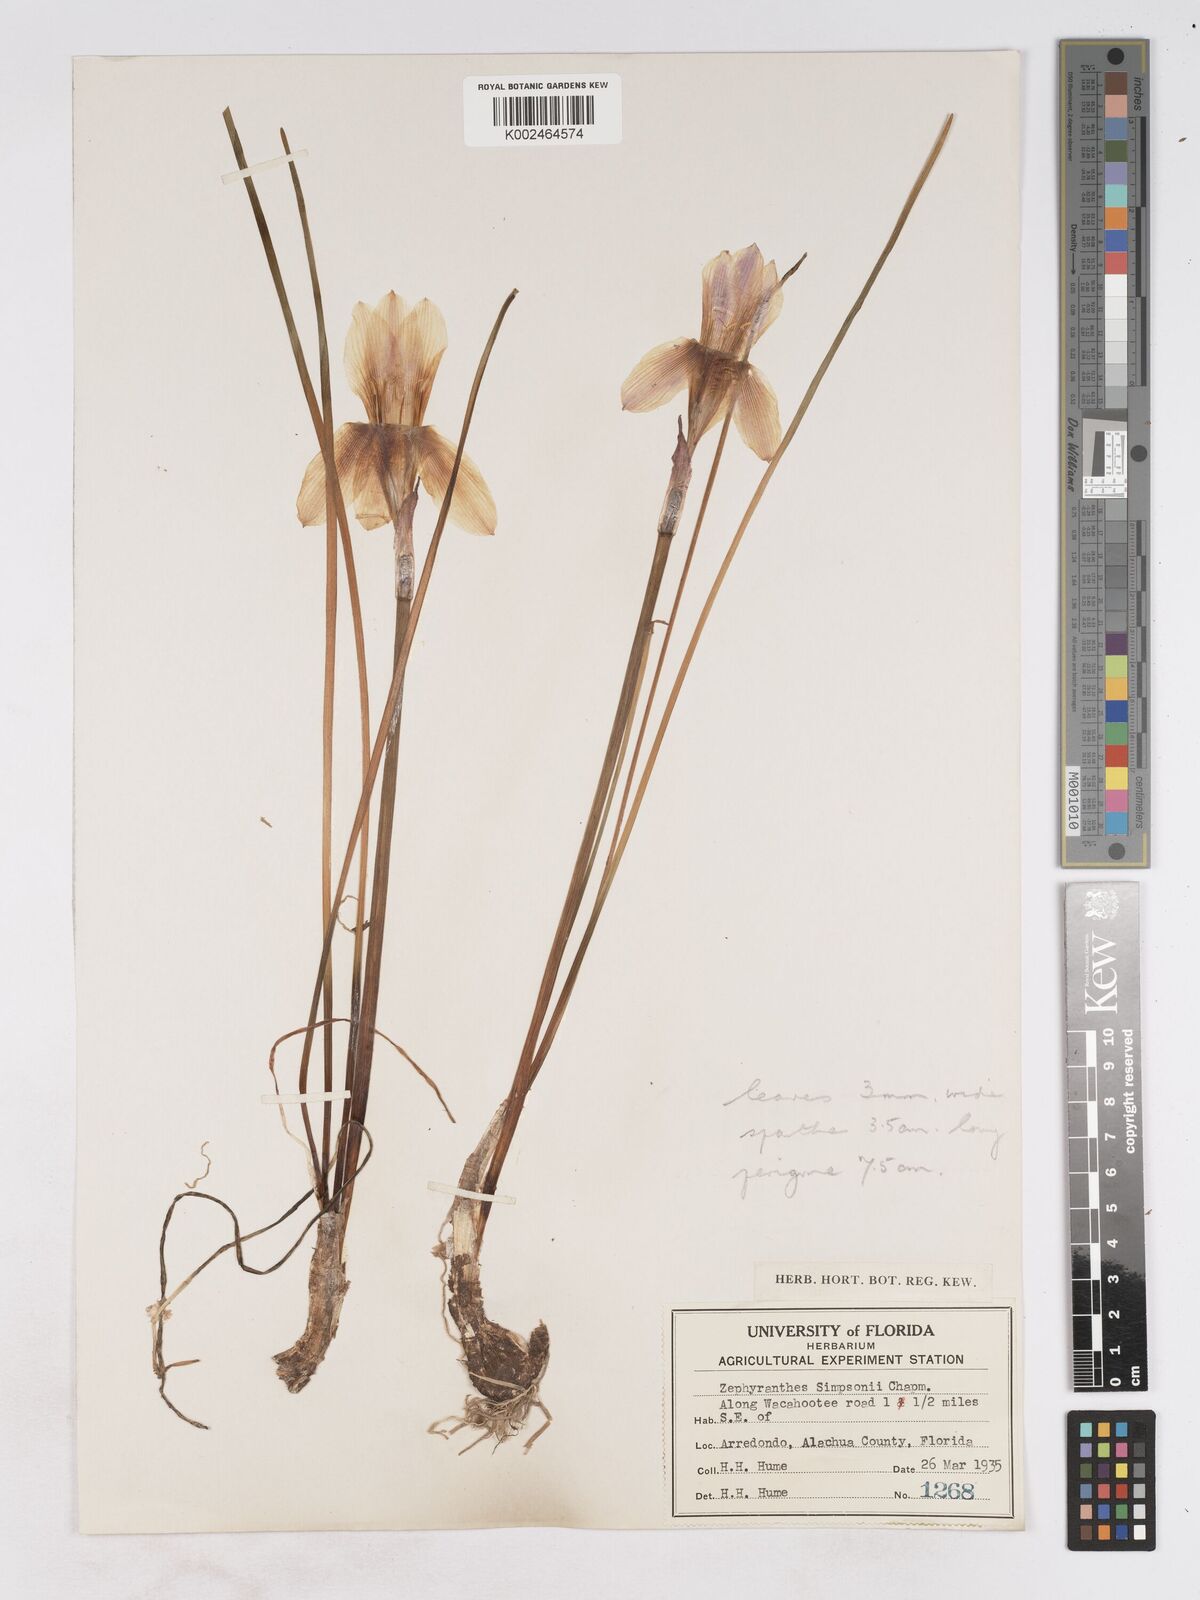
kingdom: Plantae
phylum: Tracheophyta
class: Liliopsida
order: Asparagales
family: Amaryllidaceae
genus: Zephyranthes
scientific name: Zephyranthes simpsonii
